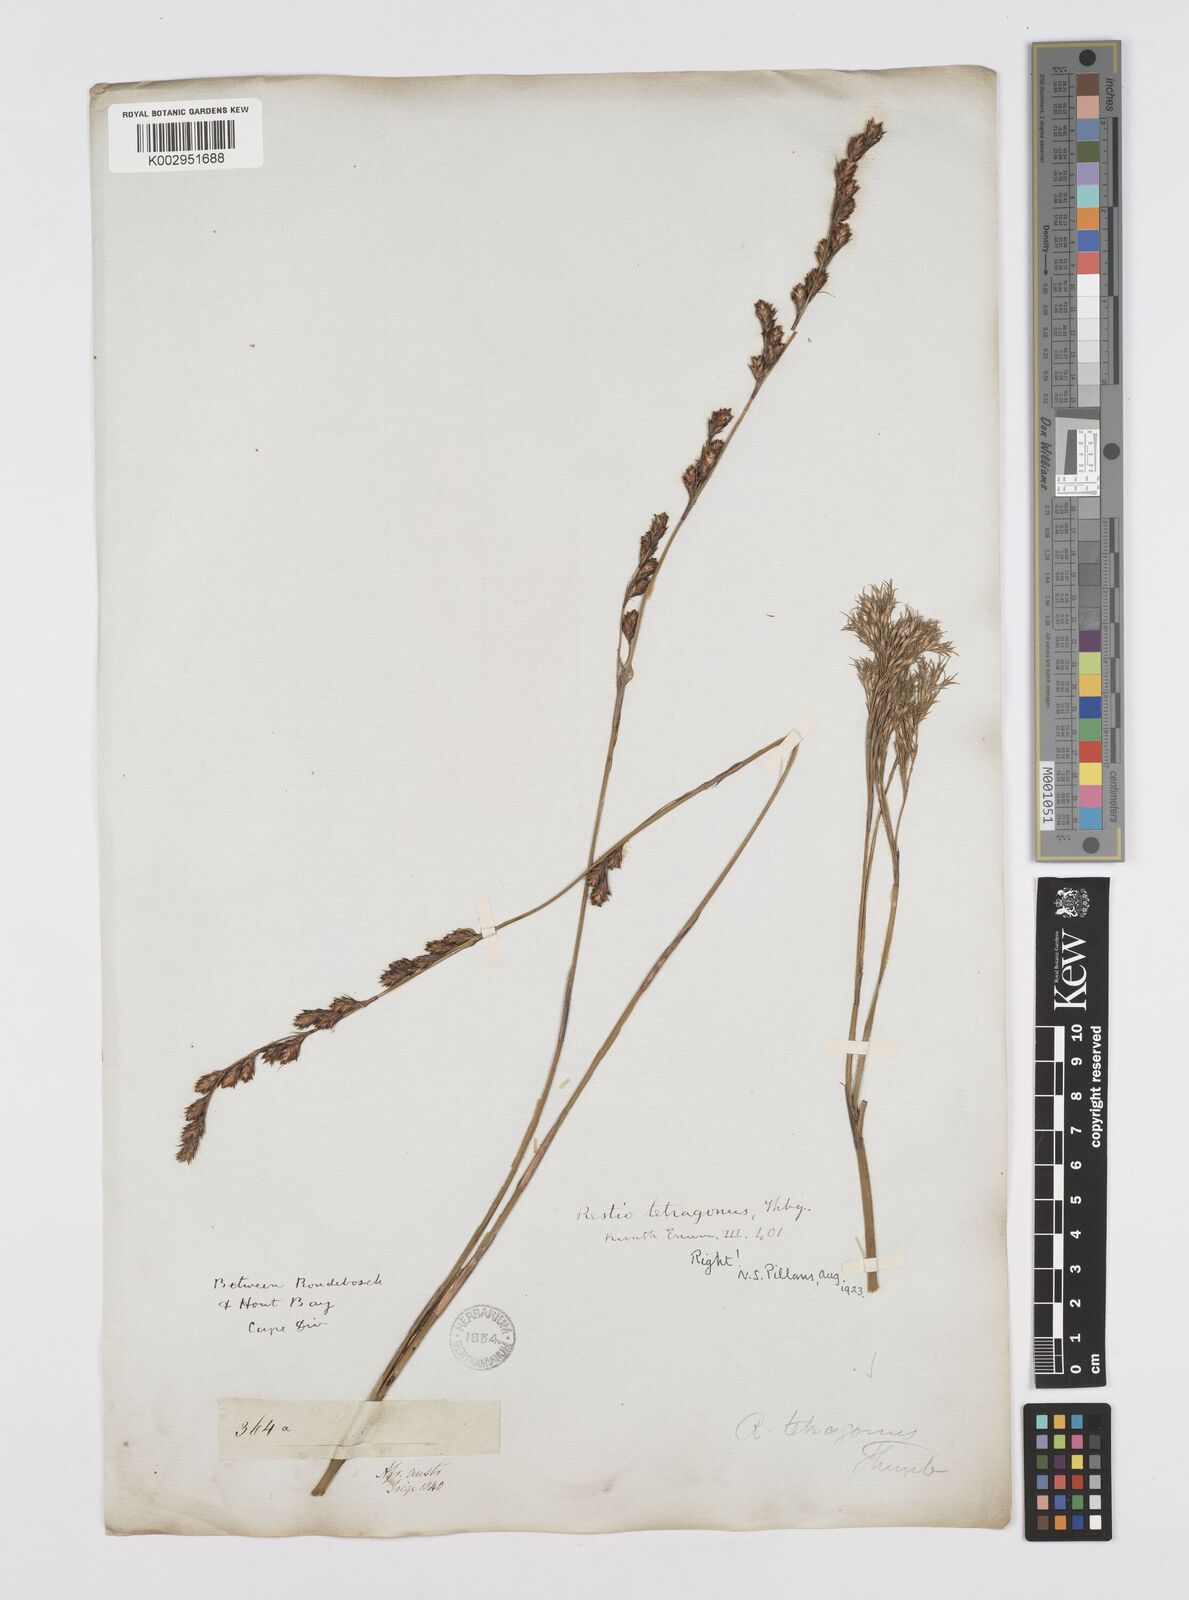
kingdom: Plantae
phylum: Tracheophyta
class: Liliopsida
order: Poales
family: Restionaceae
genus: Restio
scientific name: Restio tetragonus
